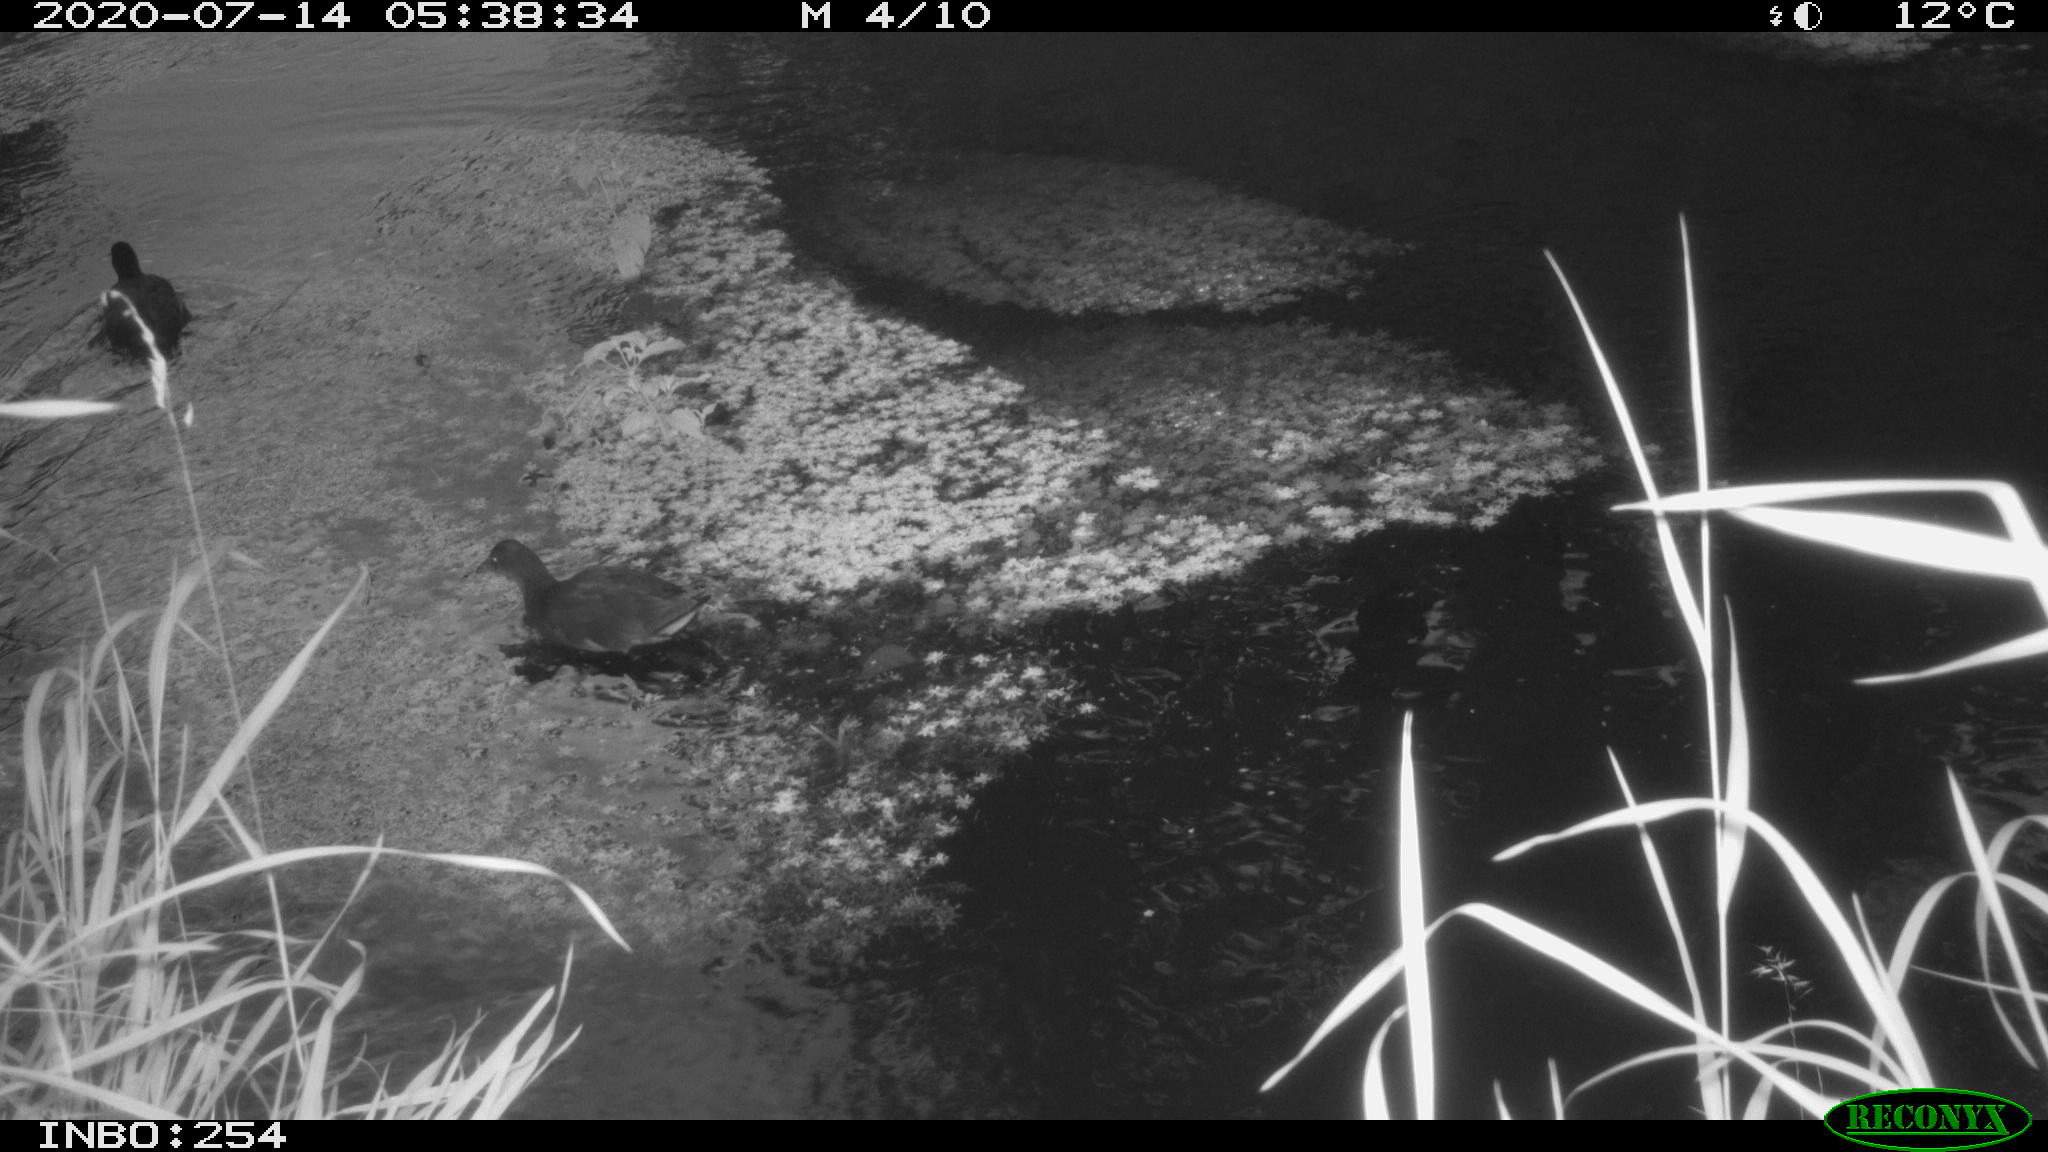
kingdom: Animalia
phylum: Chordata
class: Aves
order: Gruiformes
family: Rallidae
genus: Gallinula
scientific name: Gallinula chloropus
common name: Common moorhen
